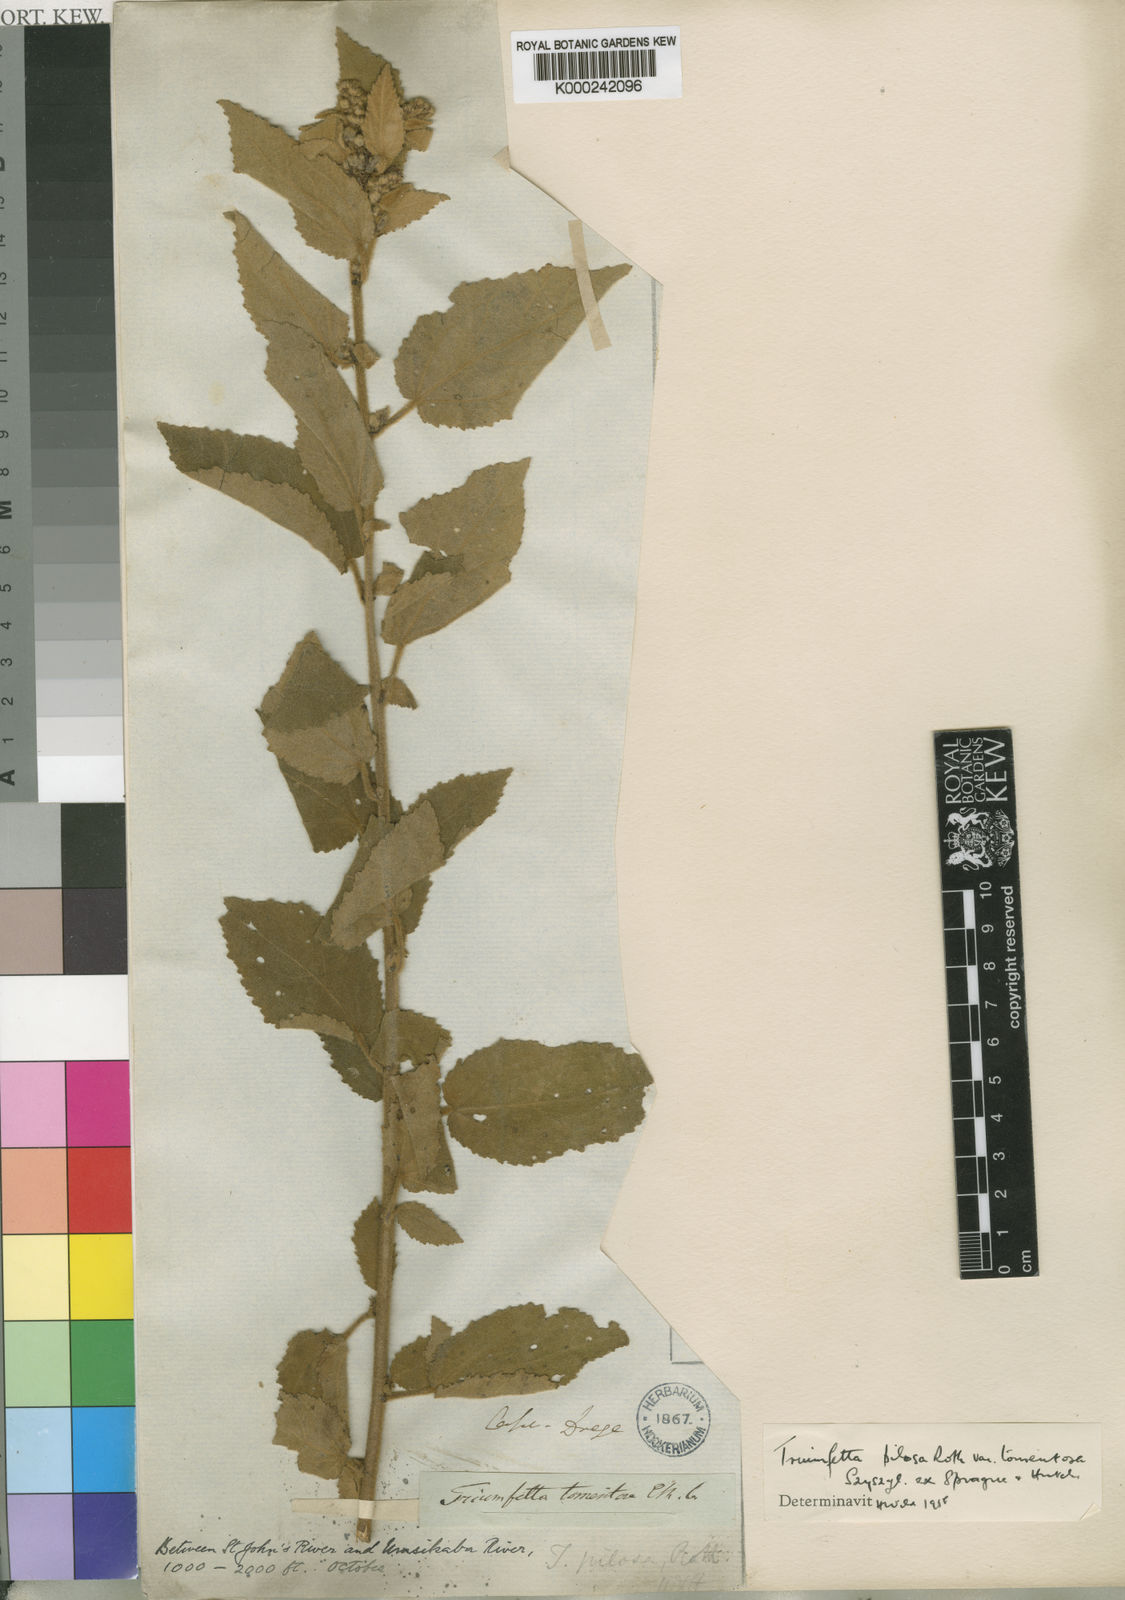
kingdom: Plantae
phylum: Tracheophyta
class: Magnoliopsida
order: Malvales
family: Malvaceae
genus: Triumfetta
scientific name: Triumfetta pilosa
